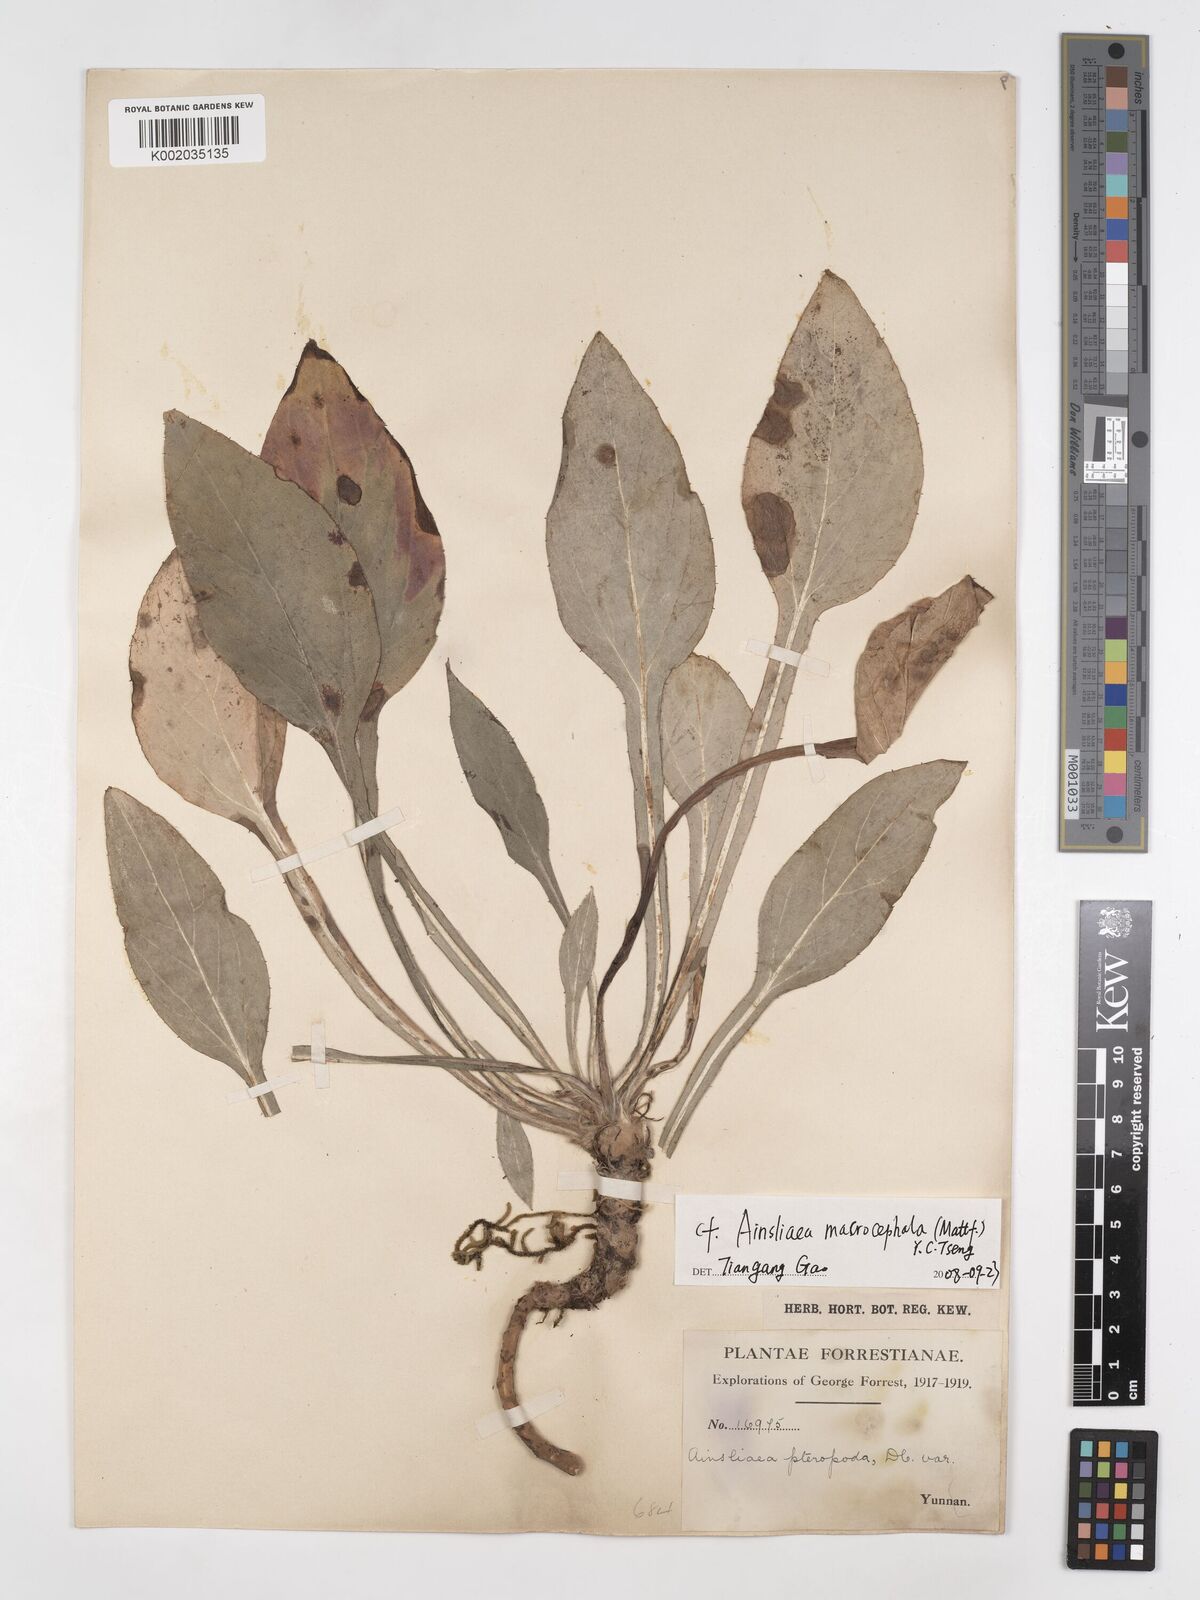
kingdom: Plantae
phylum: Tracheophyta
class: Magnoliopsida
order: Asterales
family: Asteraceae
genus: Ainsliaea
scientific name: Ainsliaea macrocephala
